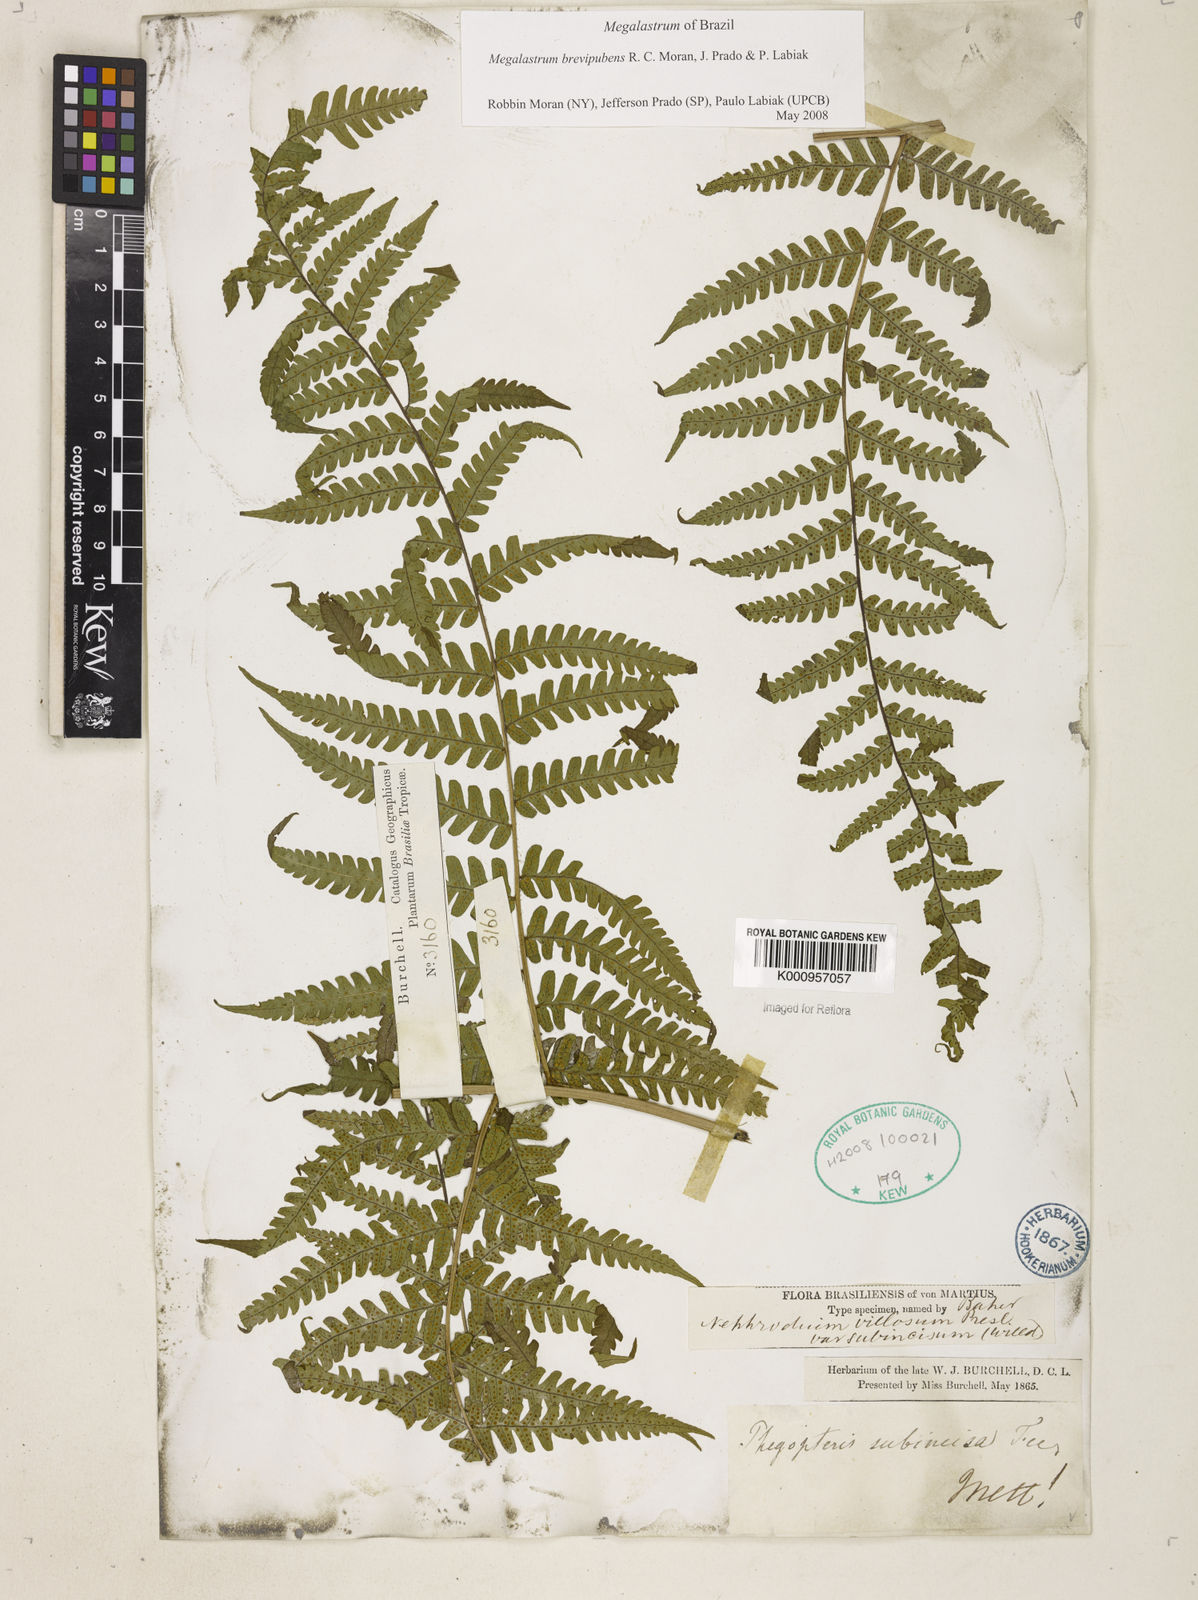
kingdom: Plantae
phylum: Tracheophyta
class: Polypodiopsida
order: Polypodiales
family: Dryopteridaceae
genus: Megalastrum
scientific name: Megalastrum brevipubens
